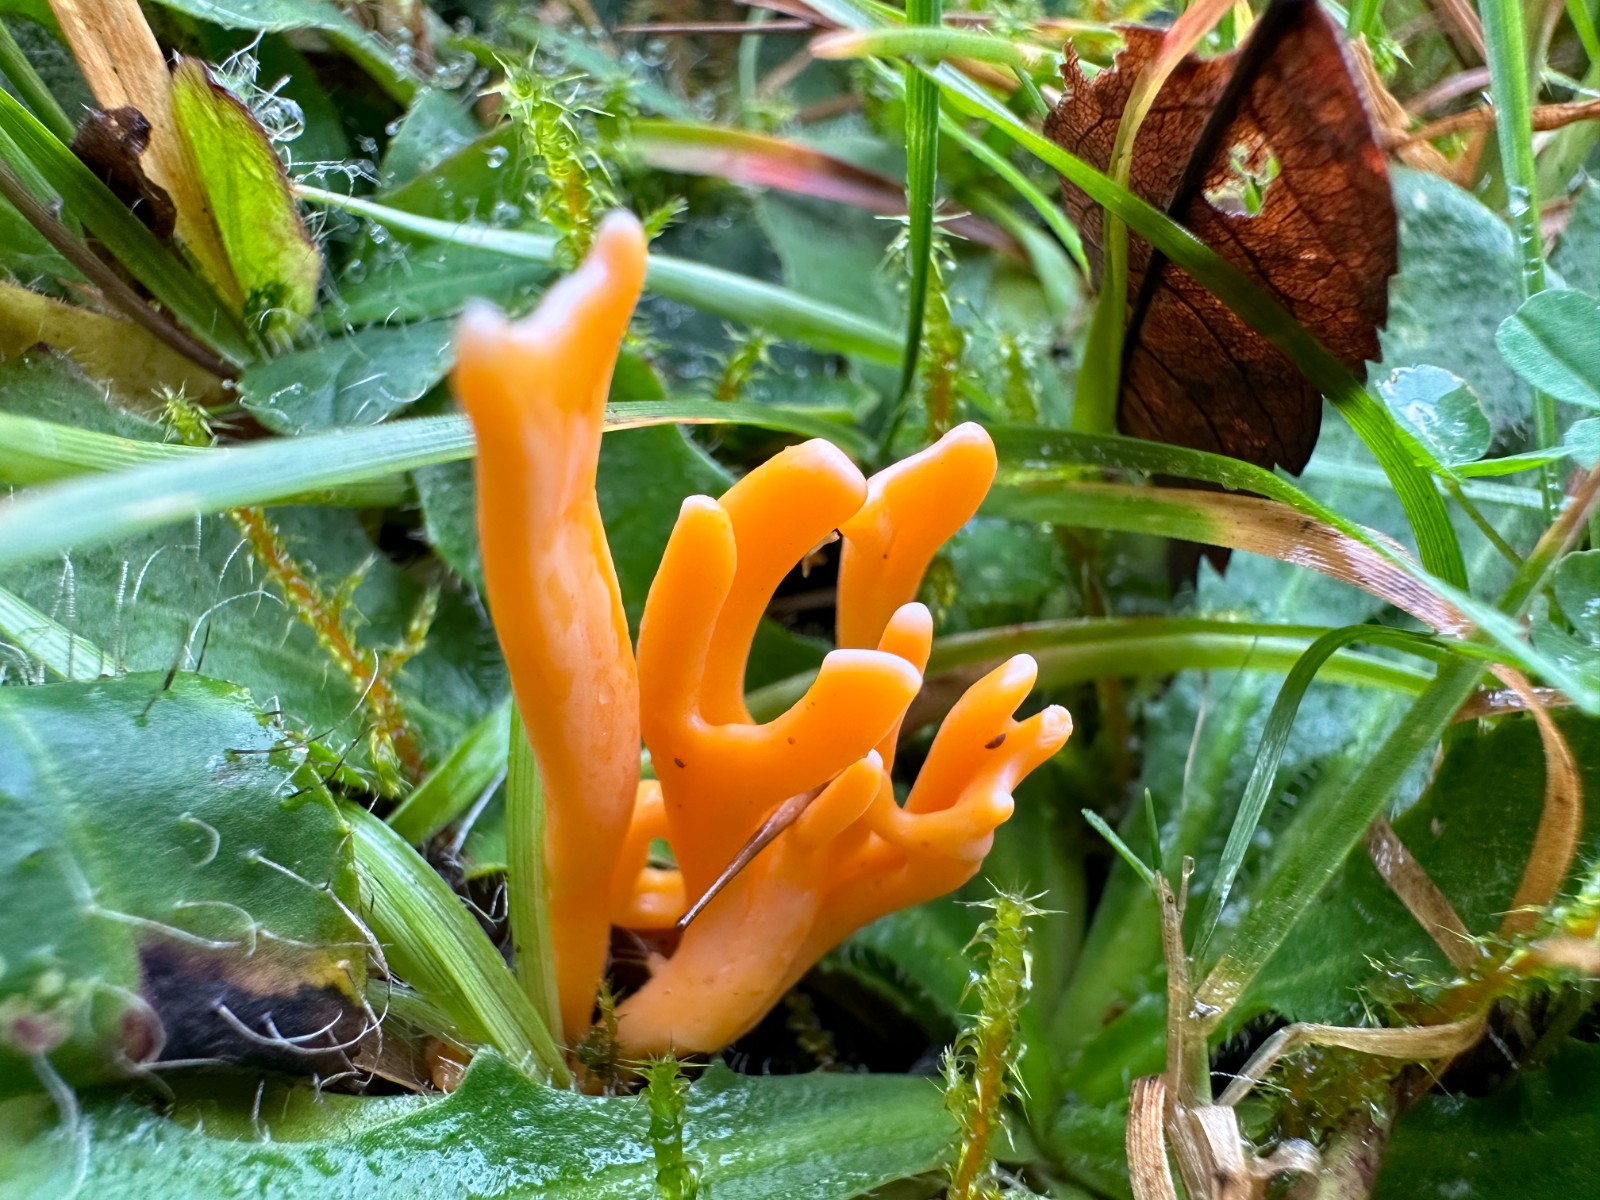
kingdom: Fungi
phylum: Basidiomycota
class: Agaricomycetes
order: Agaricales
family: Clavariaceae
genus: Clavulinopsis
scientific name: Clavulinopsis luteoalba
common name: abrikos-køllesvamp
